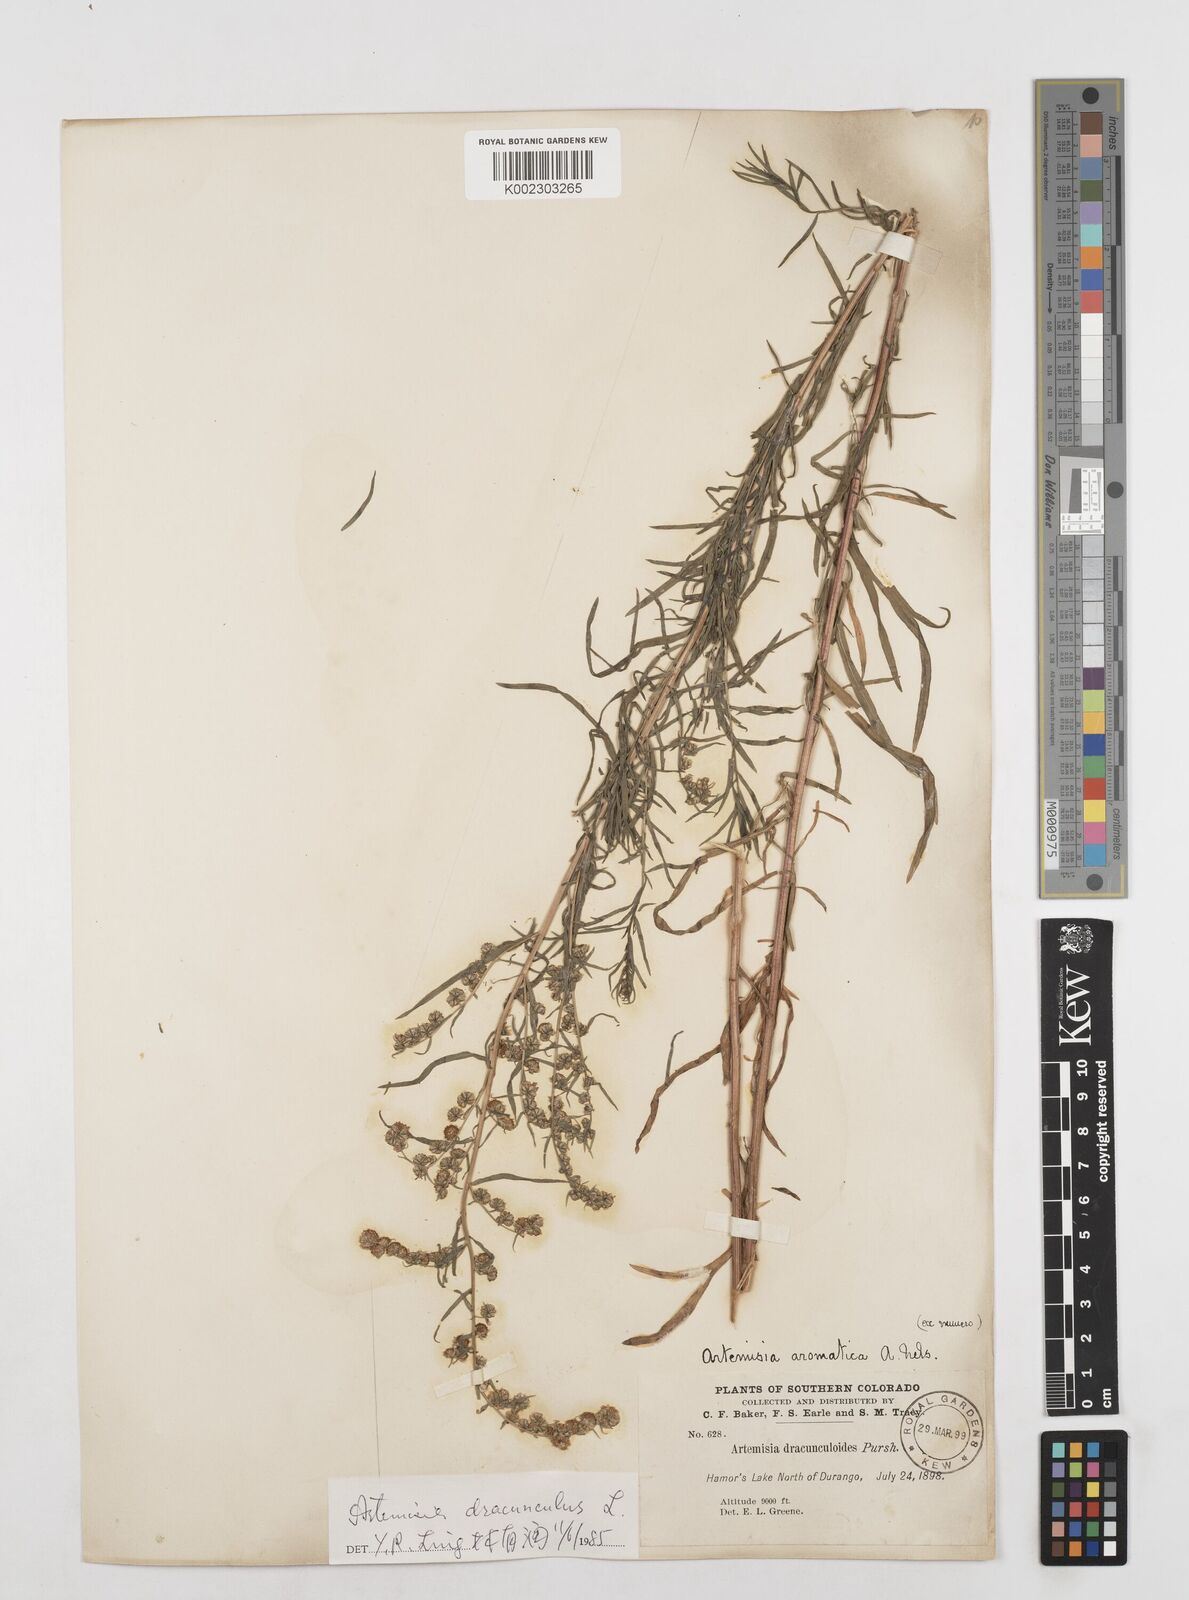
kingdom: Plantae
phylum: Tracheophyta
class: Magnoliopsida
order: Asterales
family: Asteraceae
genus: Artemisia
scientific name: Artemisia dracunculus
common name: Tarragon
